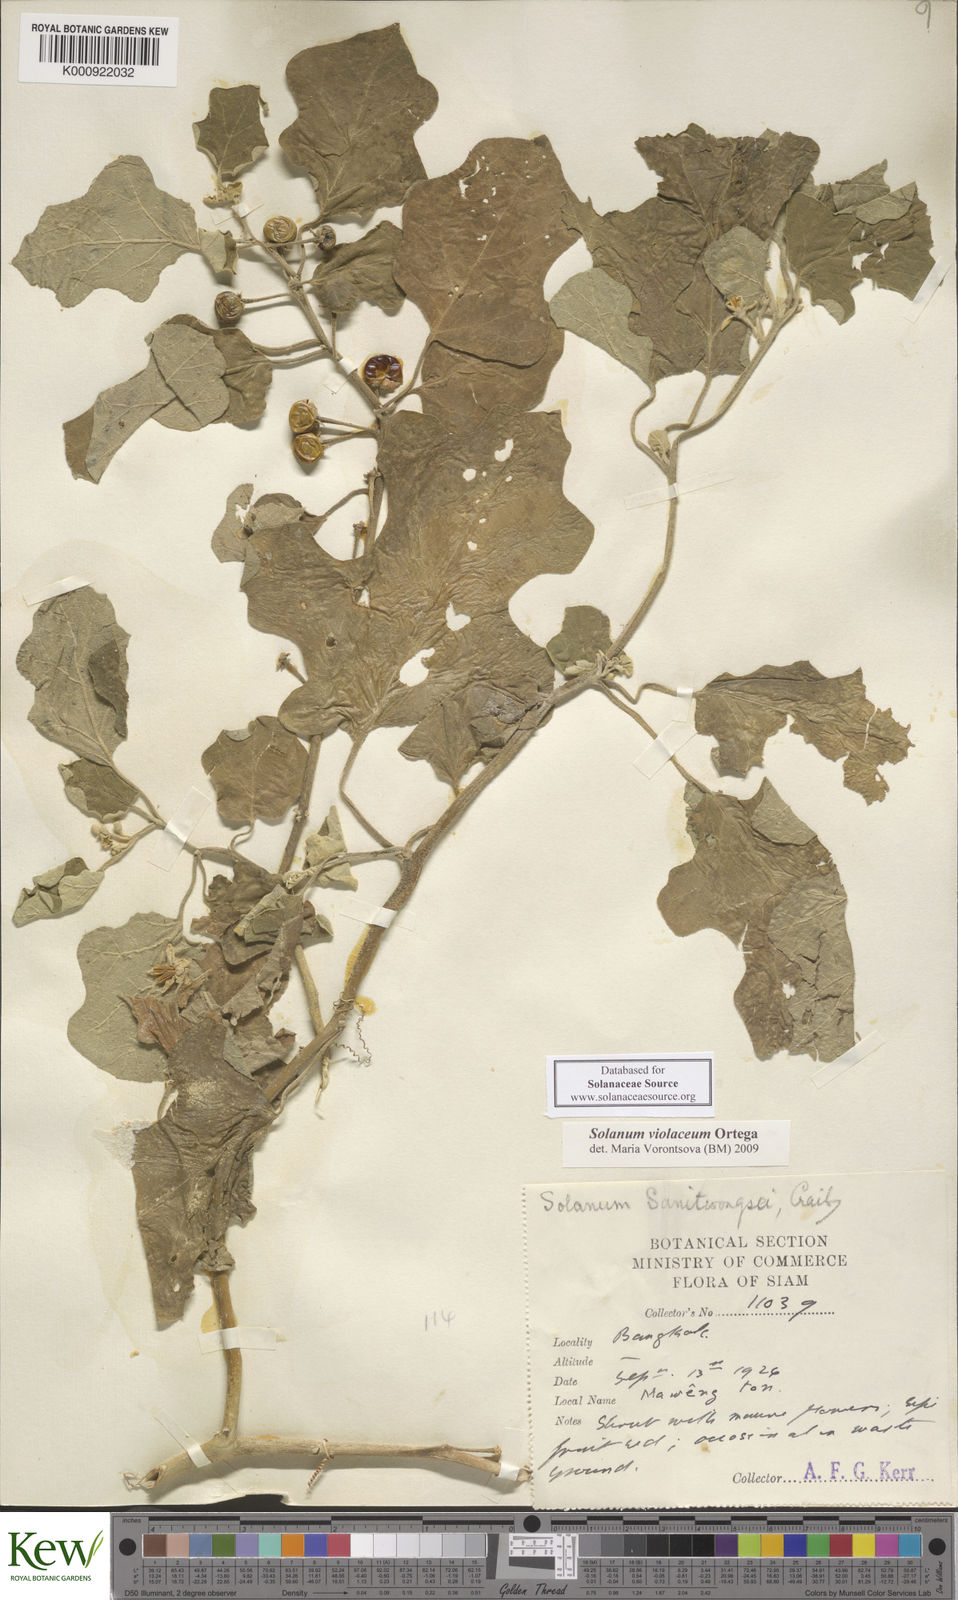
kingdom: Plantae
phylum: Tracheophyta
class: Magnoliopsida
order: Solanales
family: Solanaceae
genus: Solanum
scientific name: Solanum violaceum
